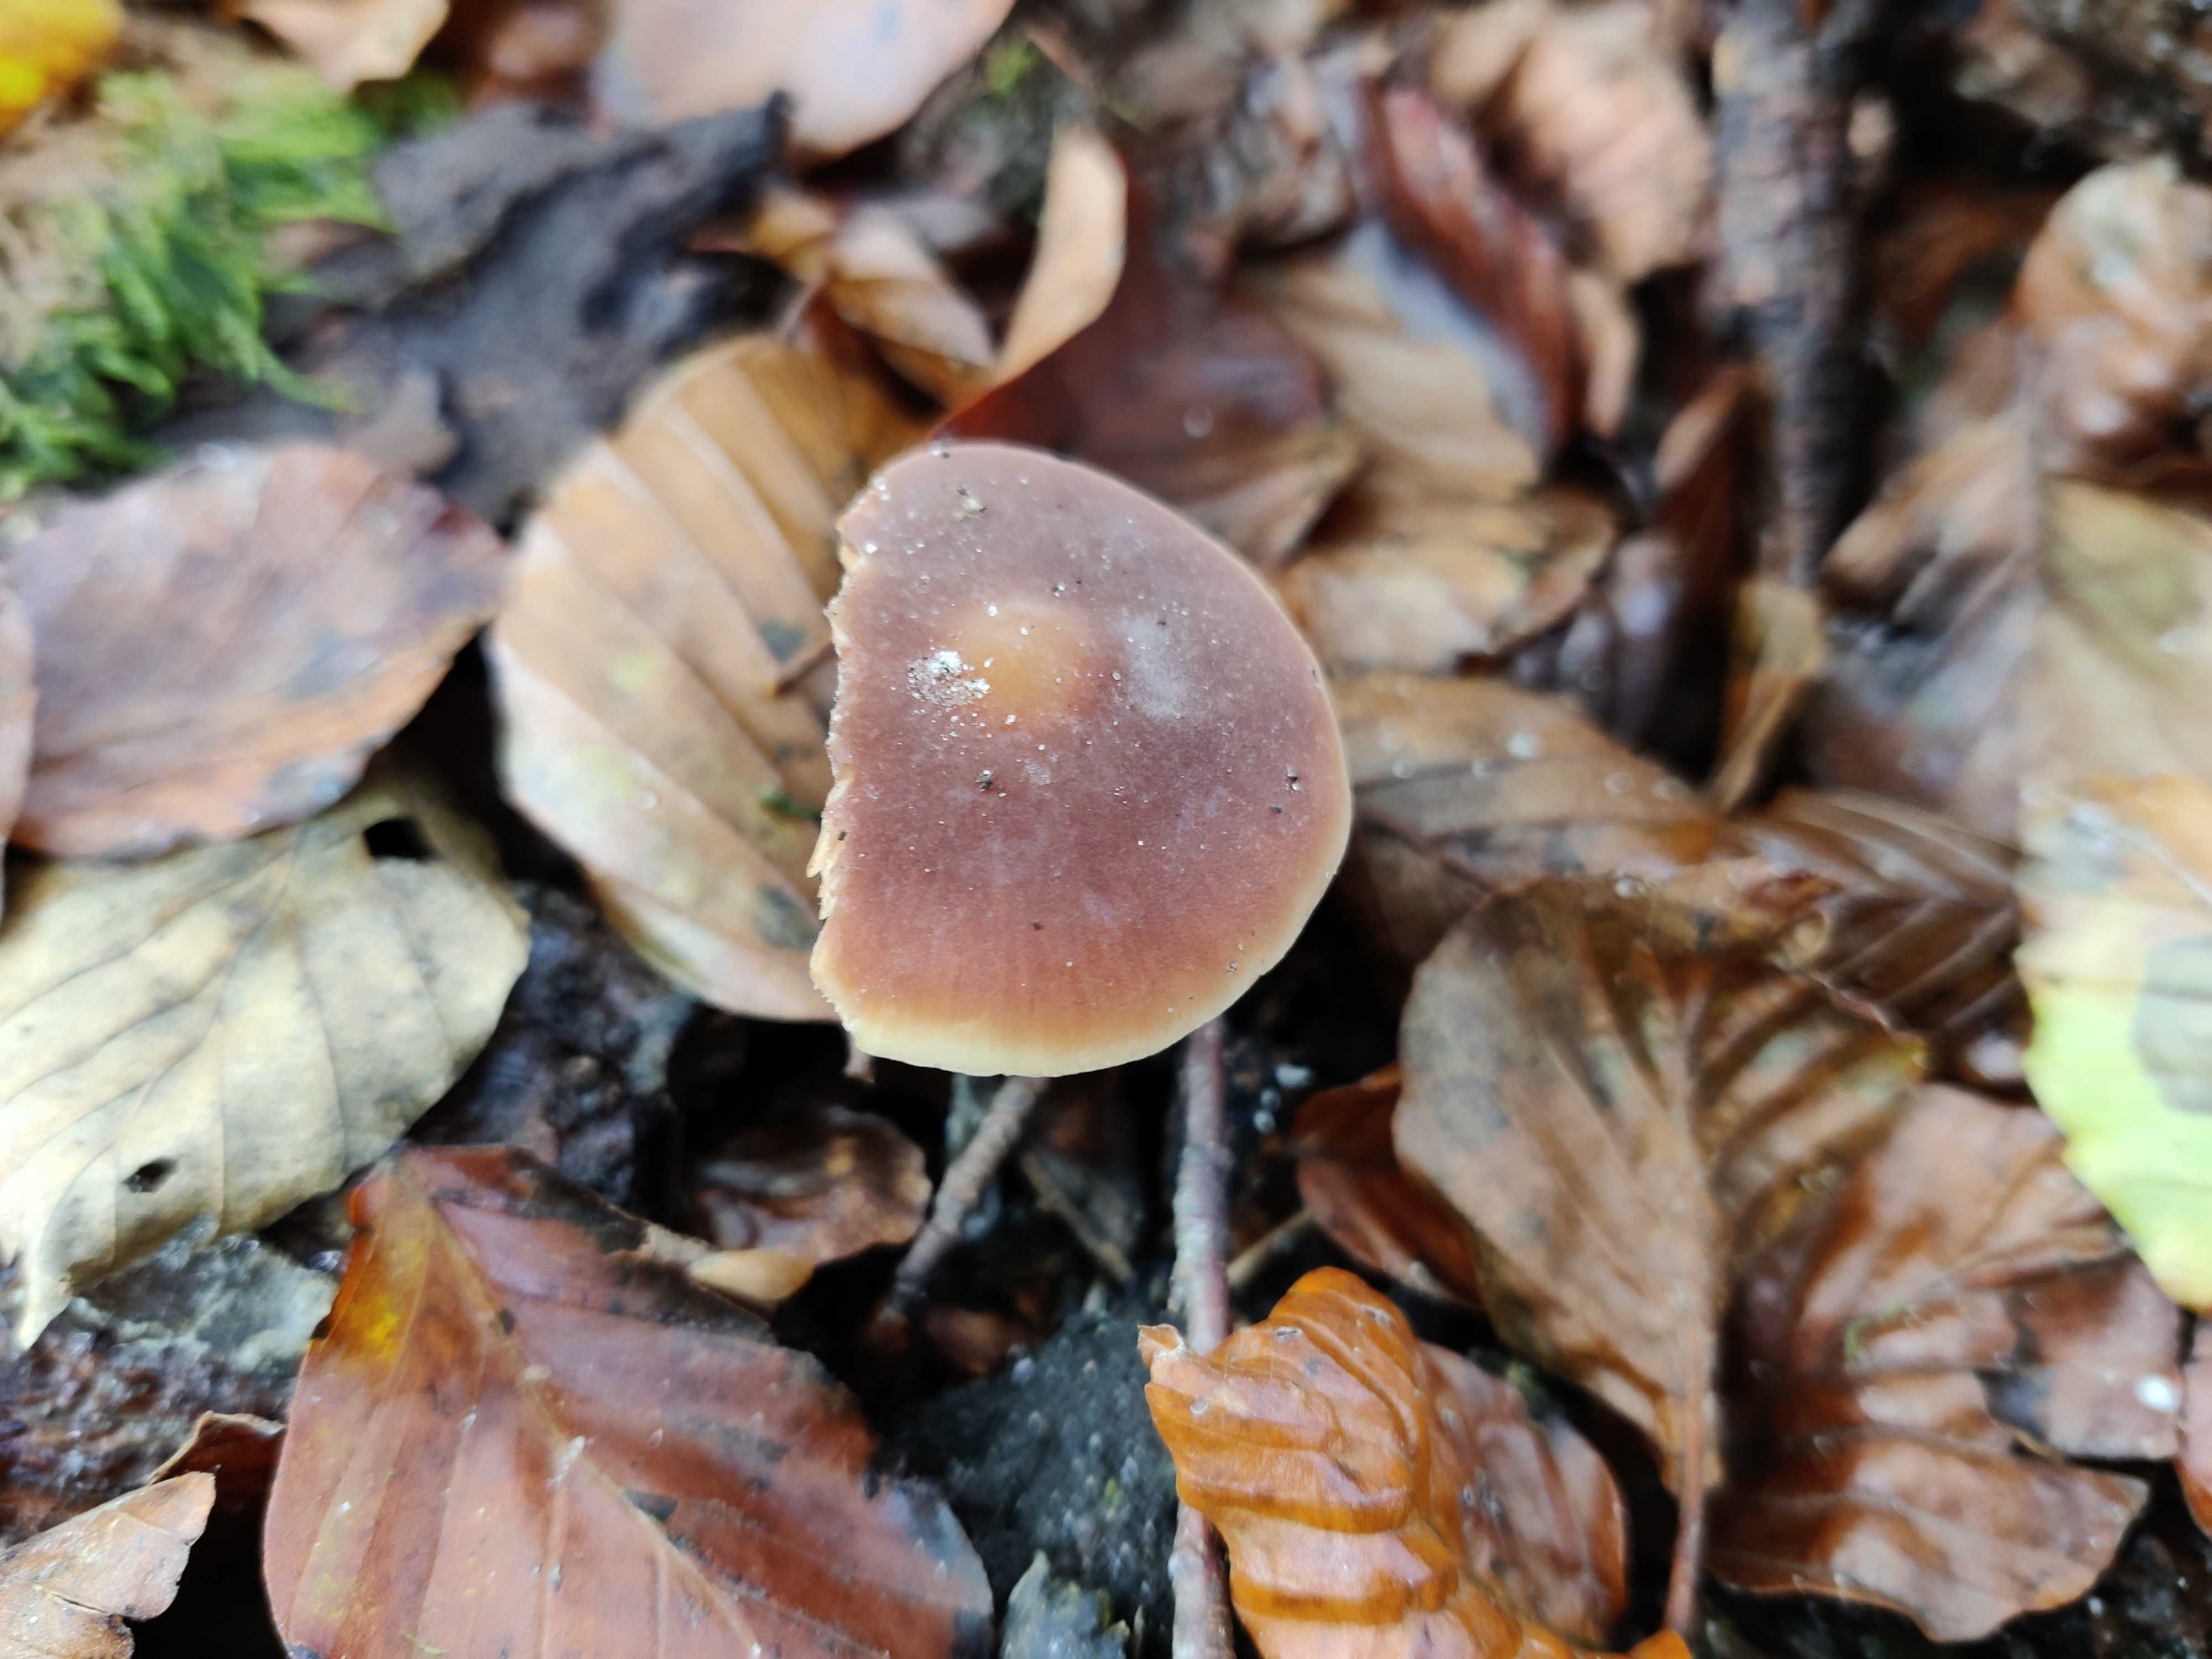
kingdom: Fungi
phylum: Basidiomycota
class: Agaricomycetes
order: Agaricales
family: Macrocystidiaceae
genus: Macrocystidia
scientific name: Macrocystidia cucumis
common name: agurkehat
